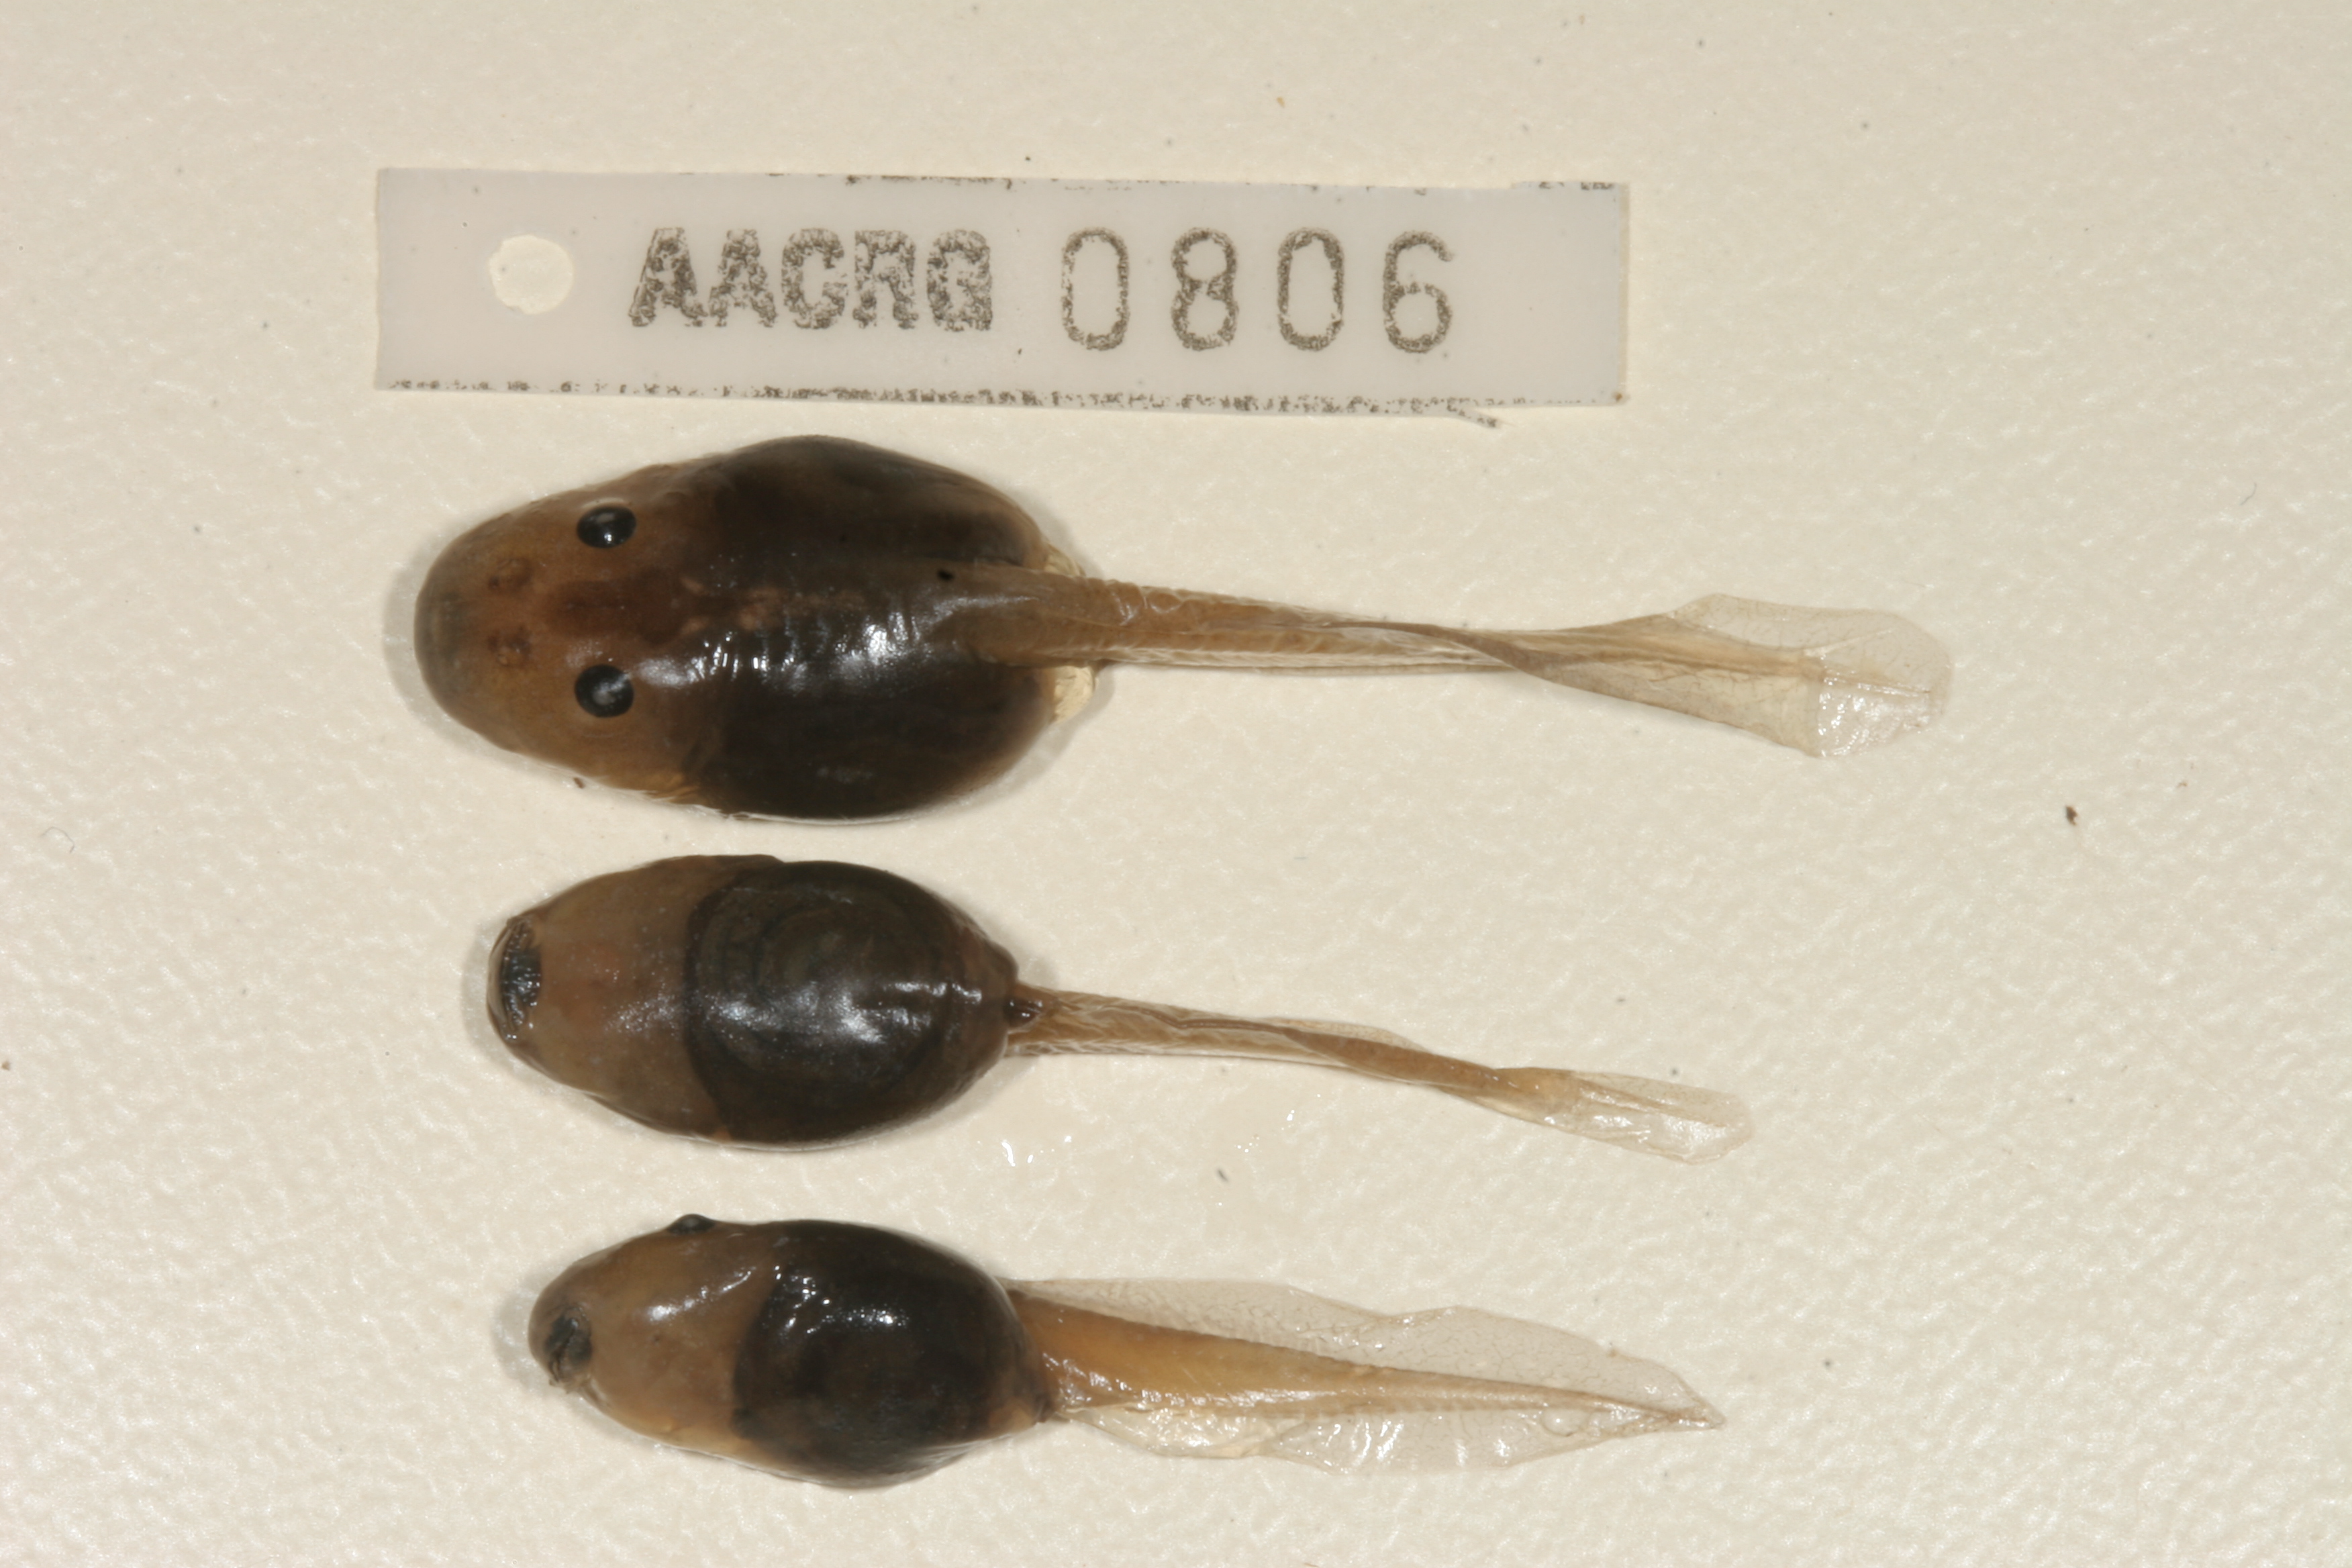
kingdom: Animalia
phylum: Chordata
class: Amphibia
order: Anura
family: Pyxicephalidae
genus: Strongylopus
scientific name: Strongylopus grayii
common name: Gray's stream frog
